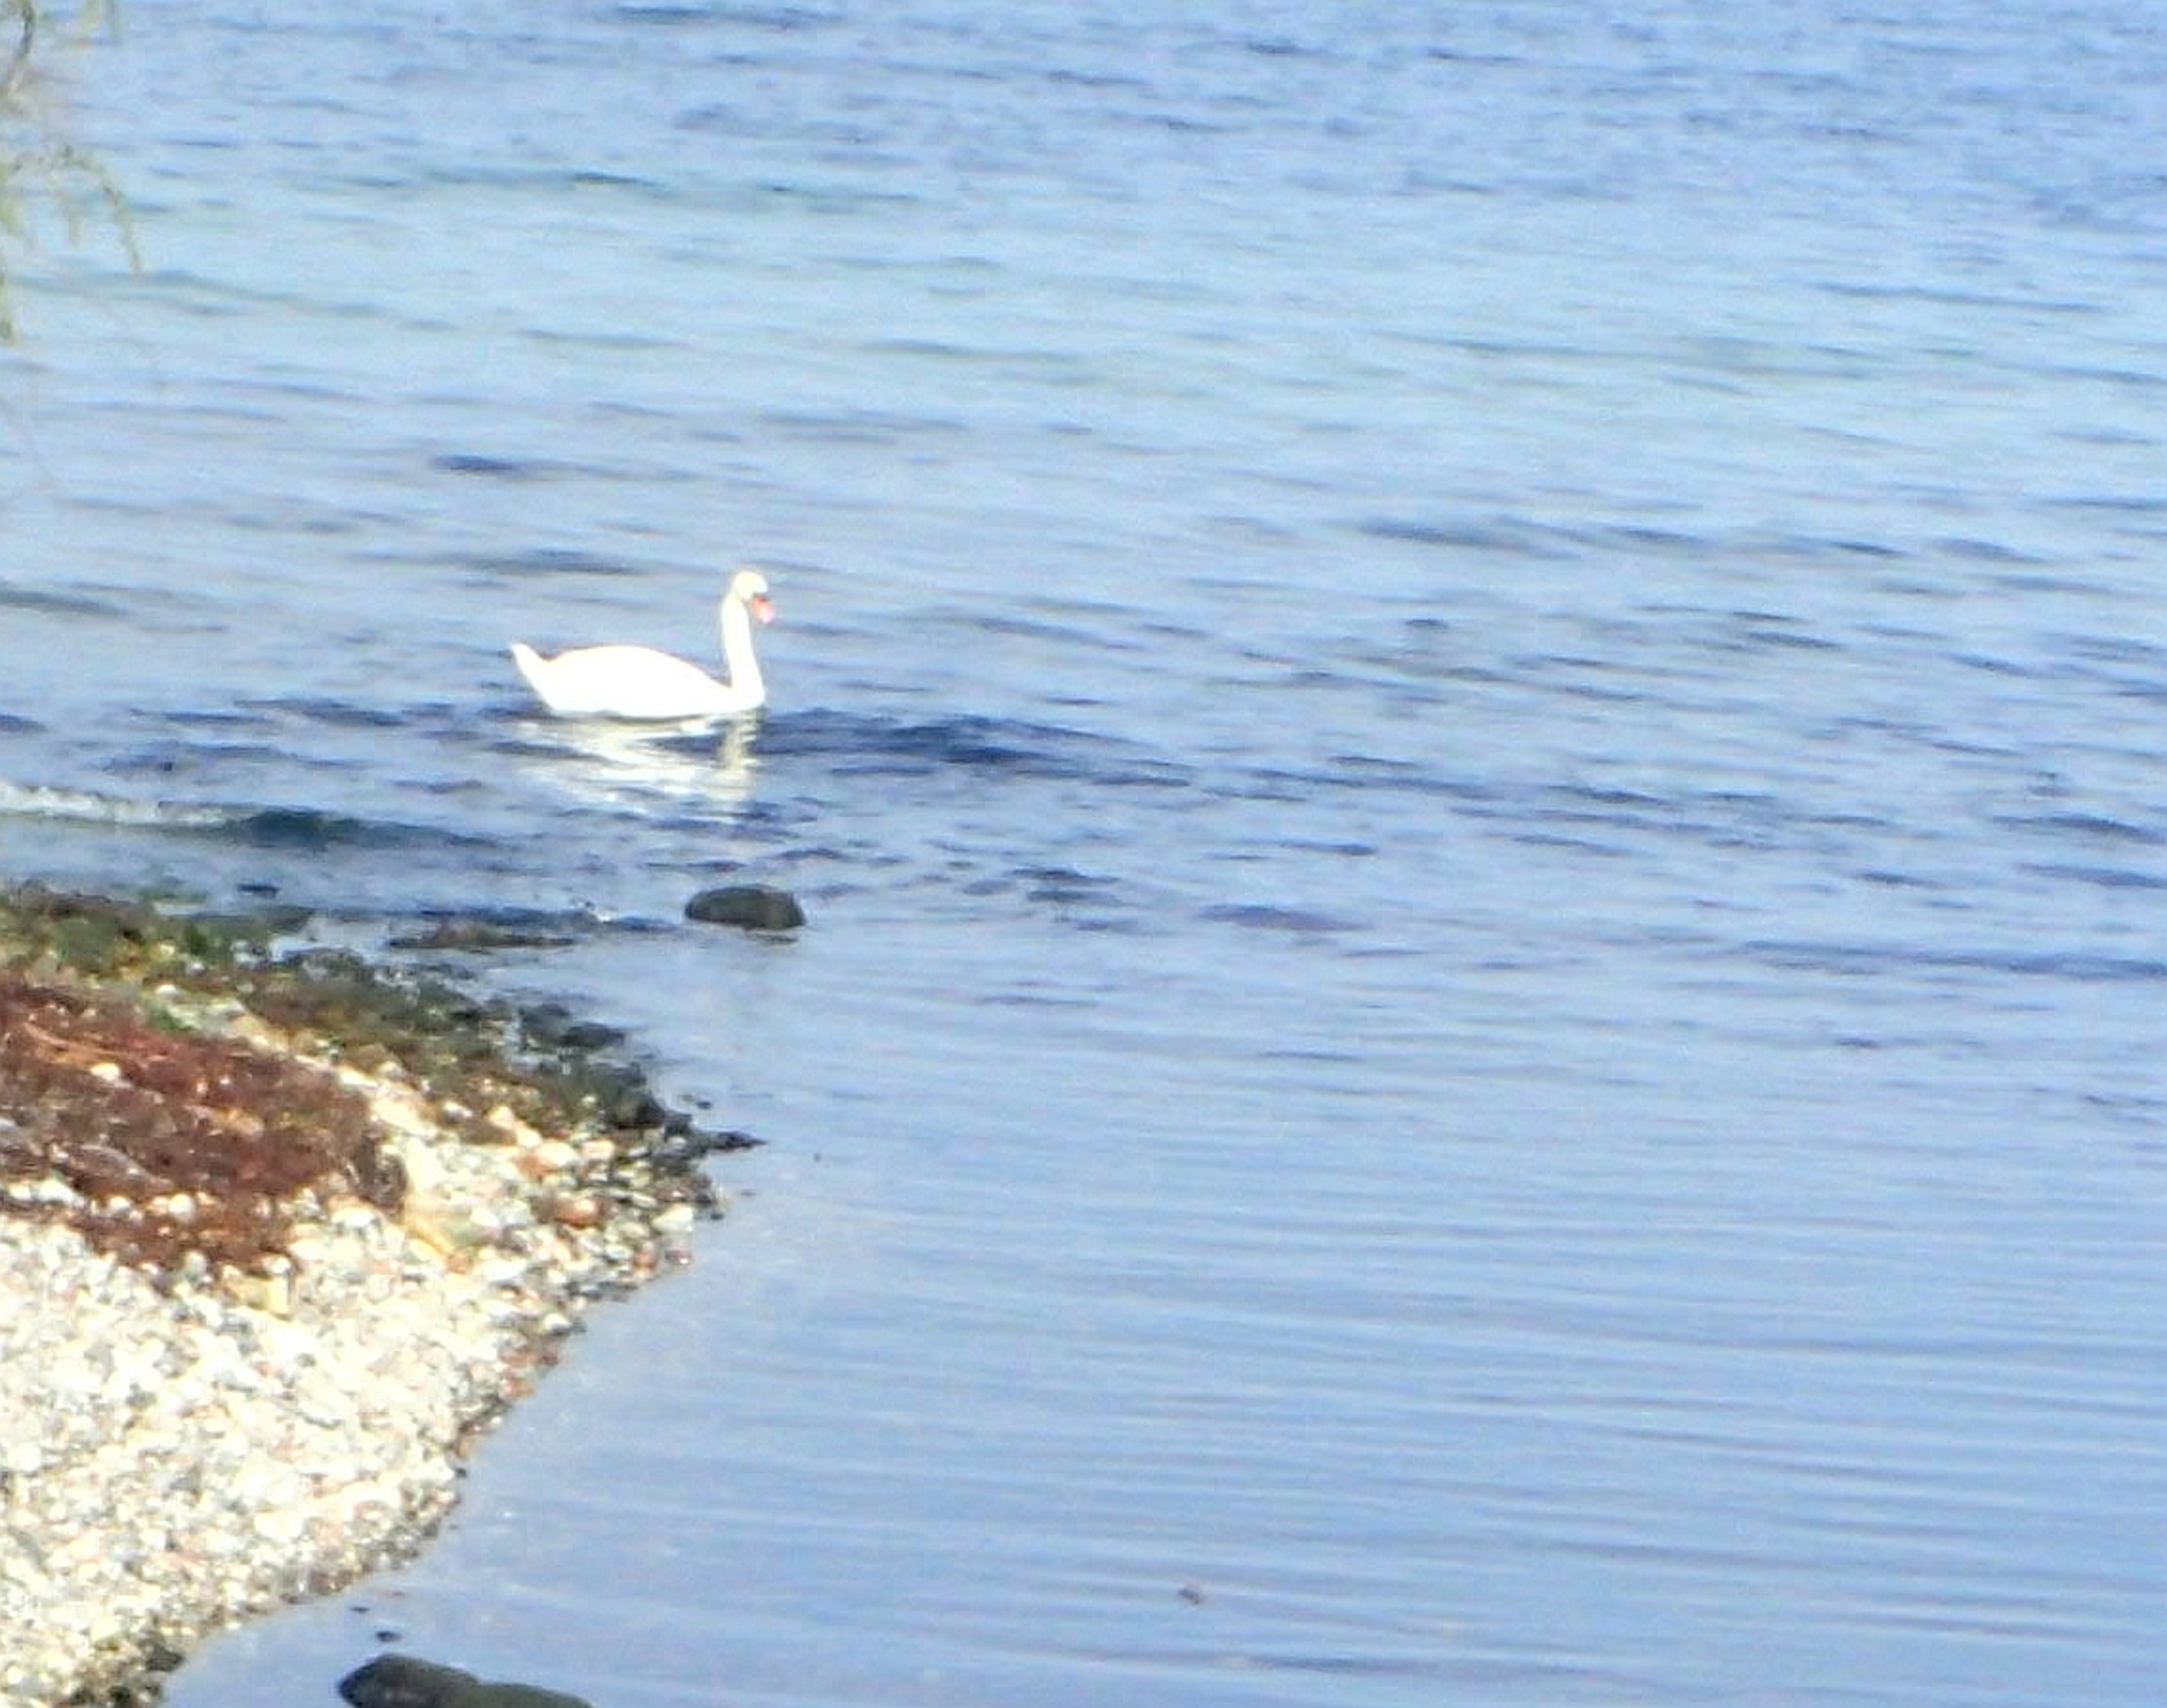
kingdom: Animalia
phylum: Chordata
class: Aves
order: Anseriformes
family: Anatidae
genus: Cygnus
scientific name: Cygnus olor
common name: Knopsvane
